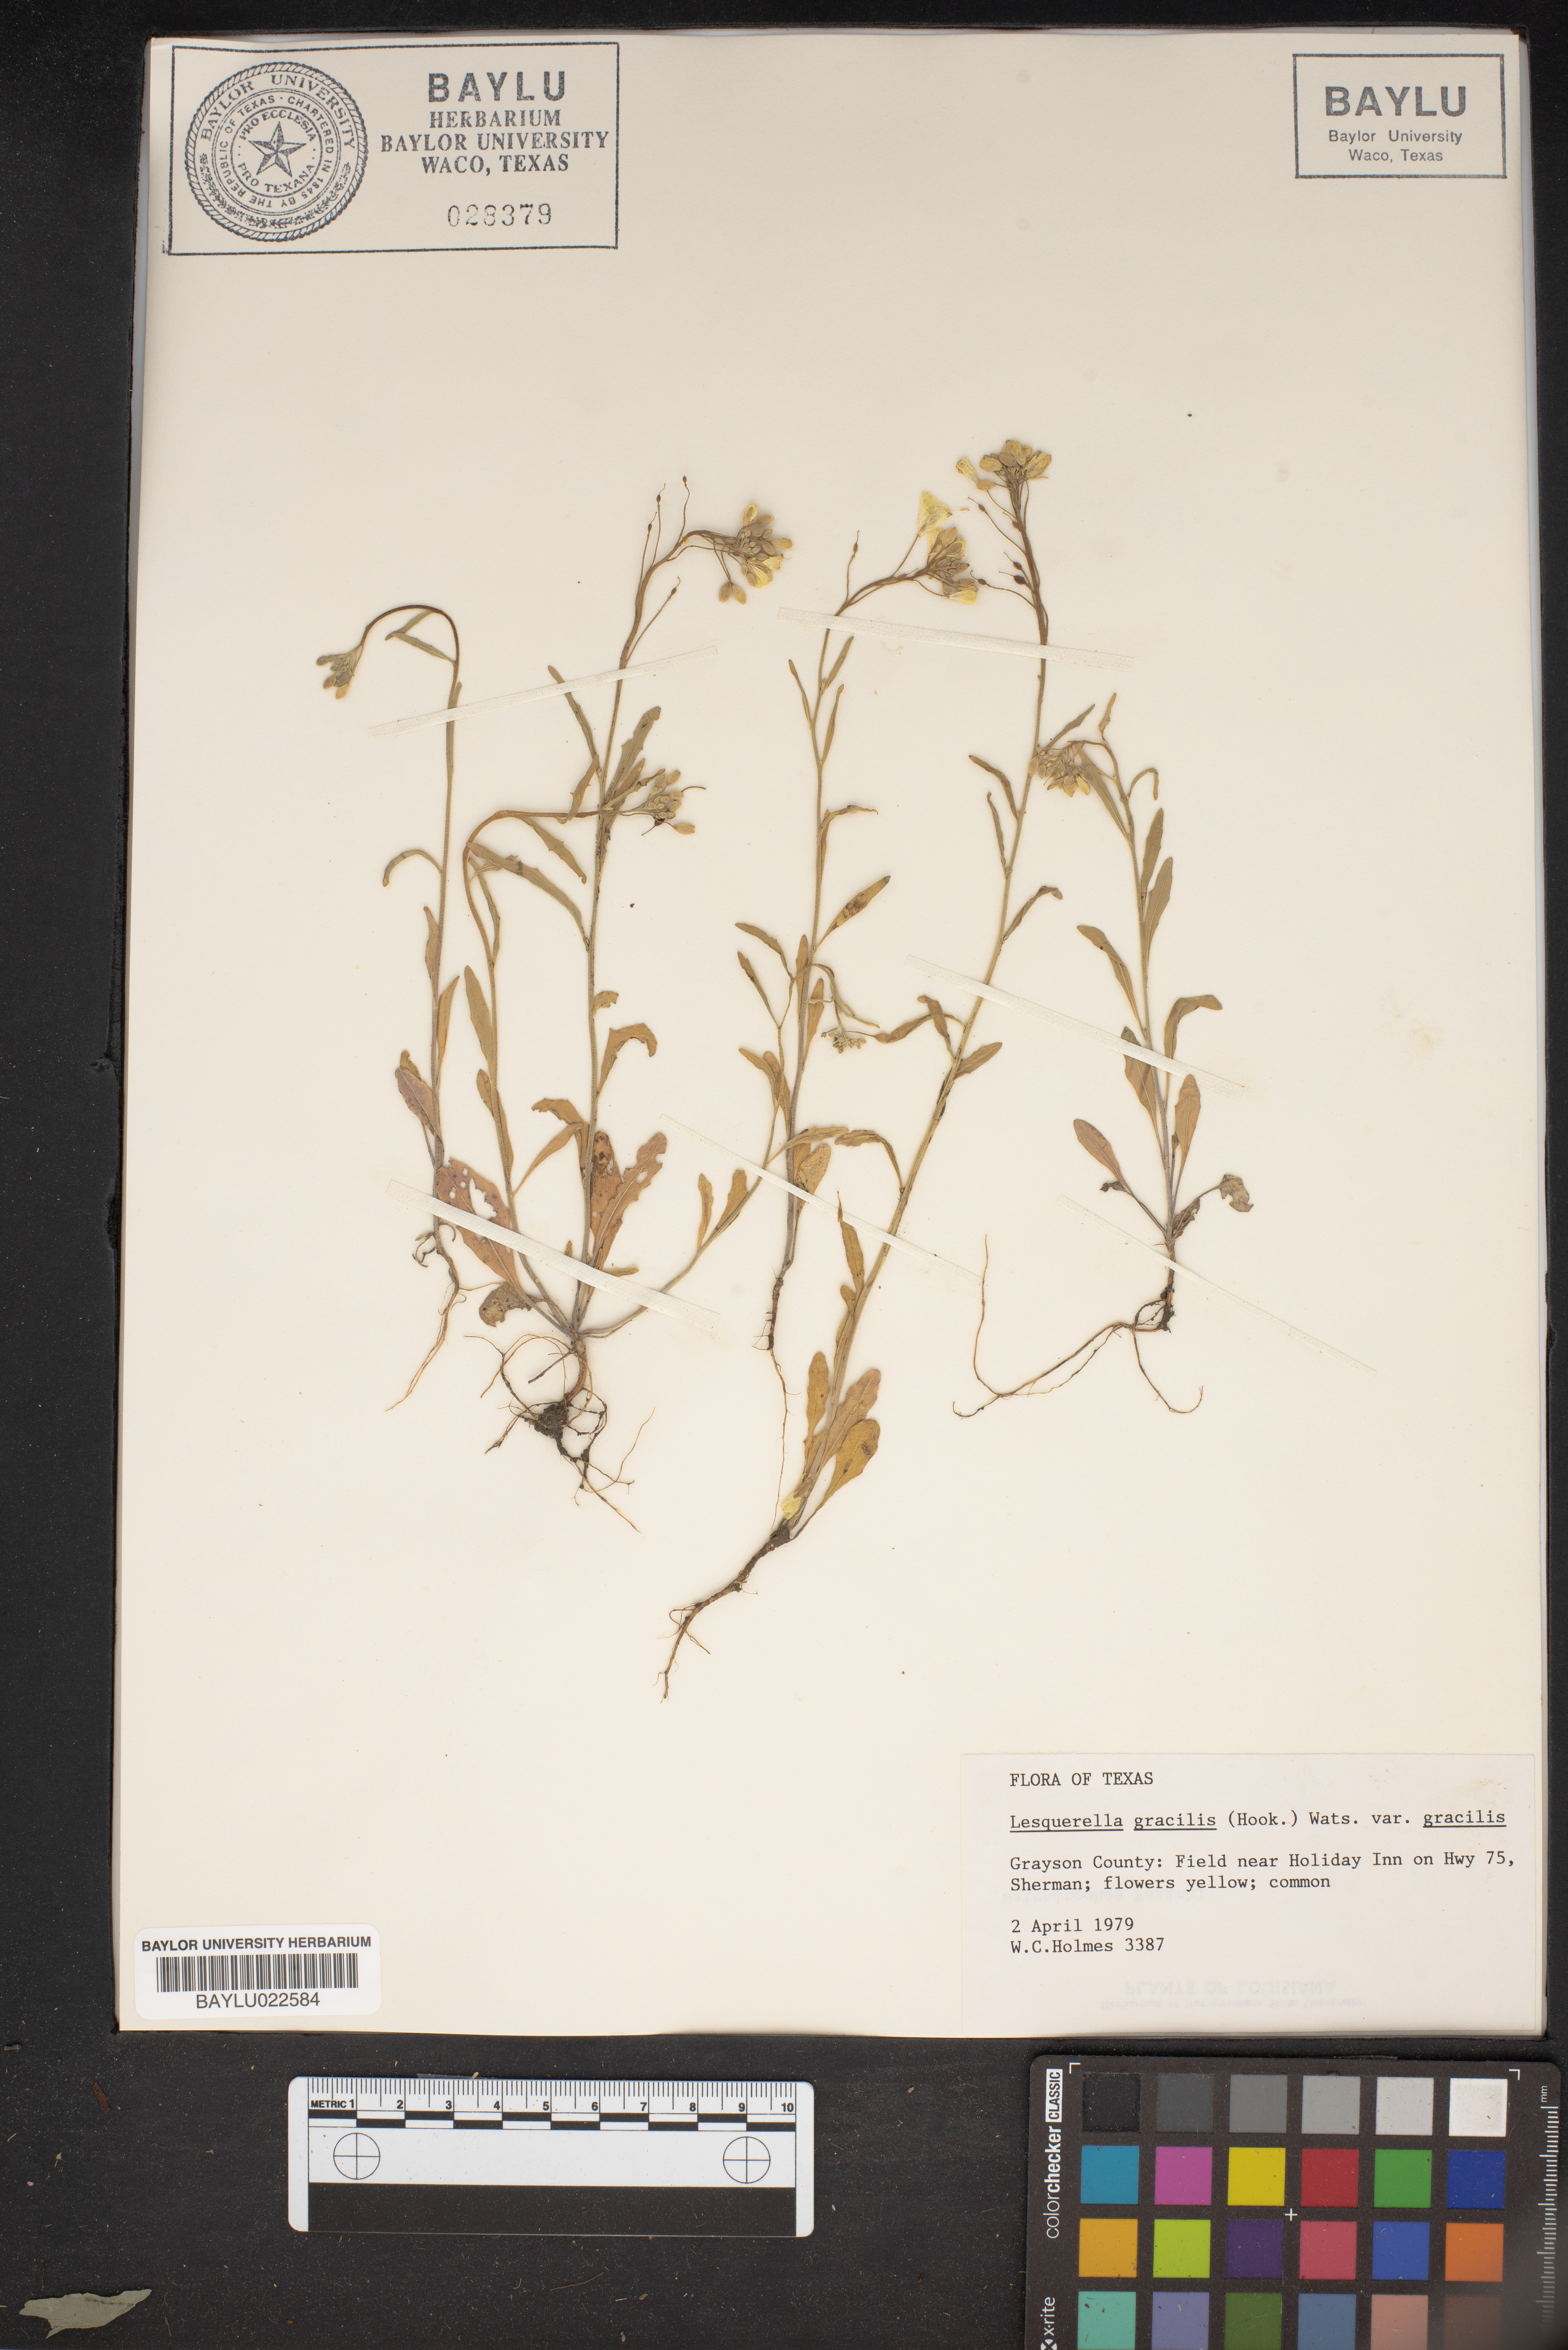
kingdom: Plantae
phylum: Tracheophyta
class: Magnoliopsida
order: Brassicales
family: Brassicaceae
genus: Physaria
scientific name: Physaria gracilis
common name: Spreading bladderpod
